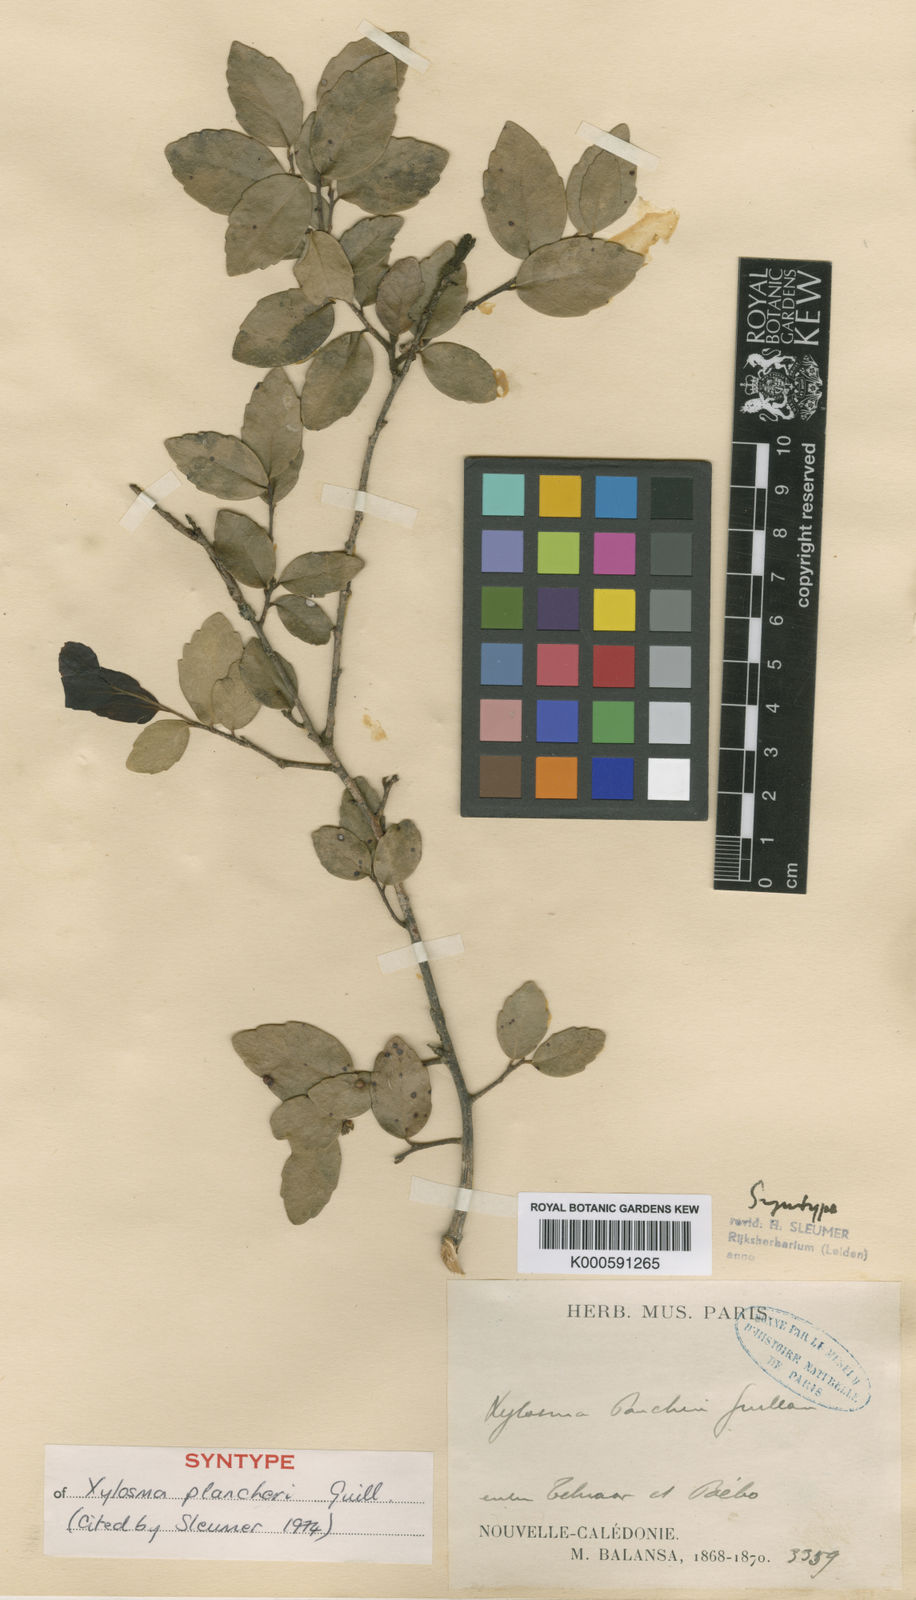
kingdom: Plantae
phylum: Tracheophyta
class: Magnoliopsida
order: Malpighiales
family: Salicaceae
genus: Xylosma
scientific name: Xylosma pancheri
